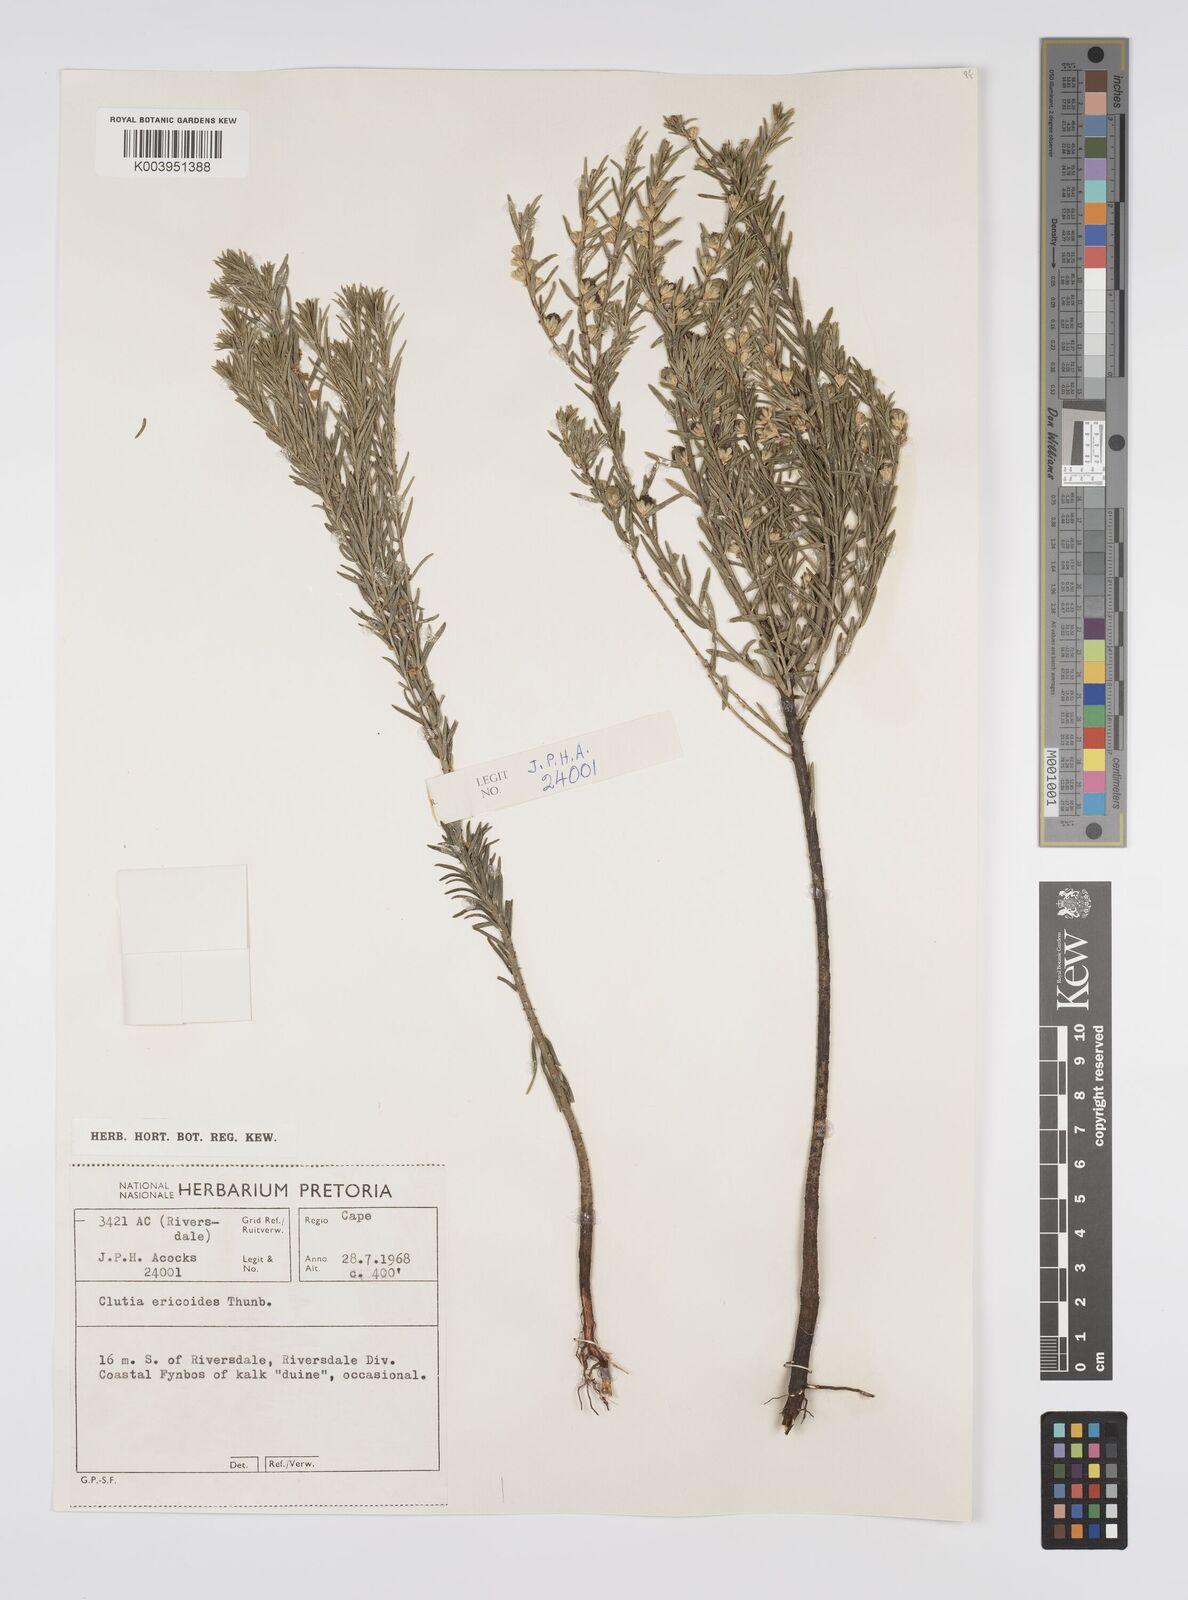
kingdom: Plantae
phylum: Tracheophyta
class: Magnoliopsida
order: Malpighiales
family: Peraceae
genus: Clutia
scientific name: Clutia
